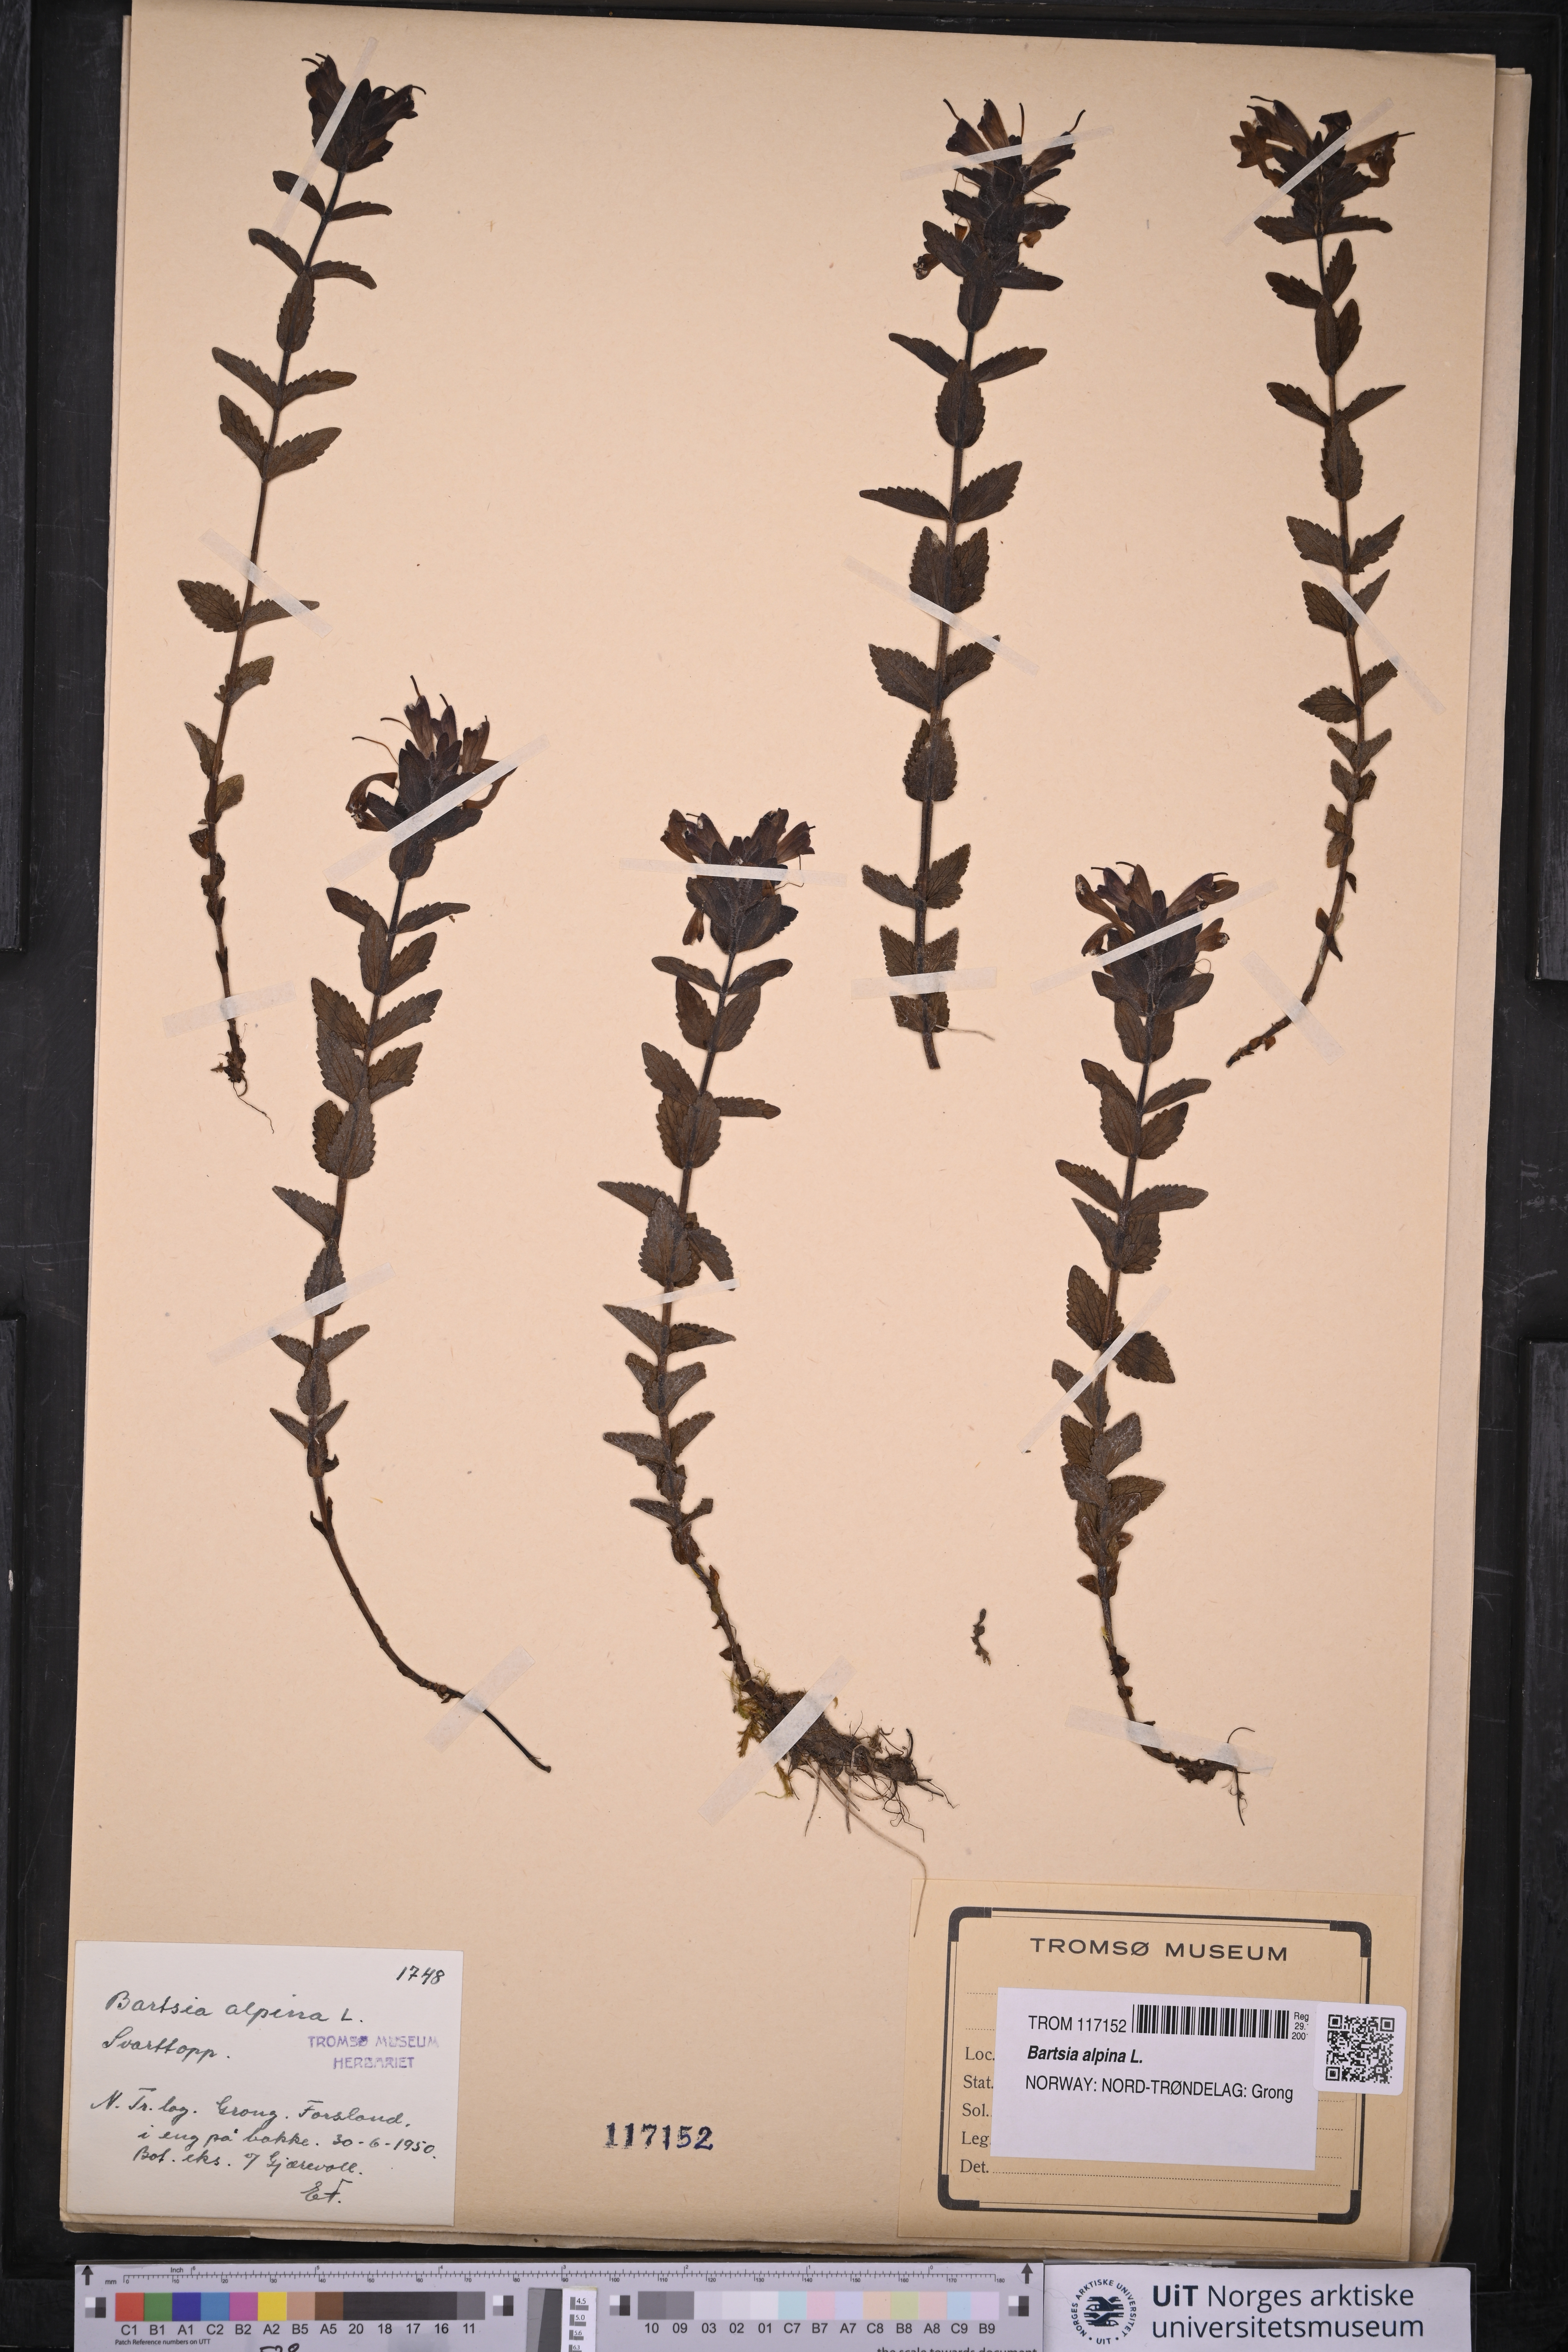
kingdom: Plantae
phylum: Tracheophyta
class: Magnoliopsida
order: Lamiales
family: Orobanchaceae
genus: Bartsia
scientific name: Bartsia alpina
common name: Alpine bartsia
